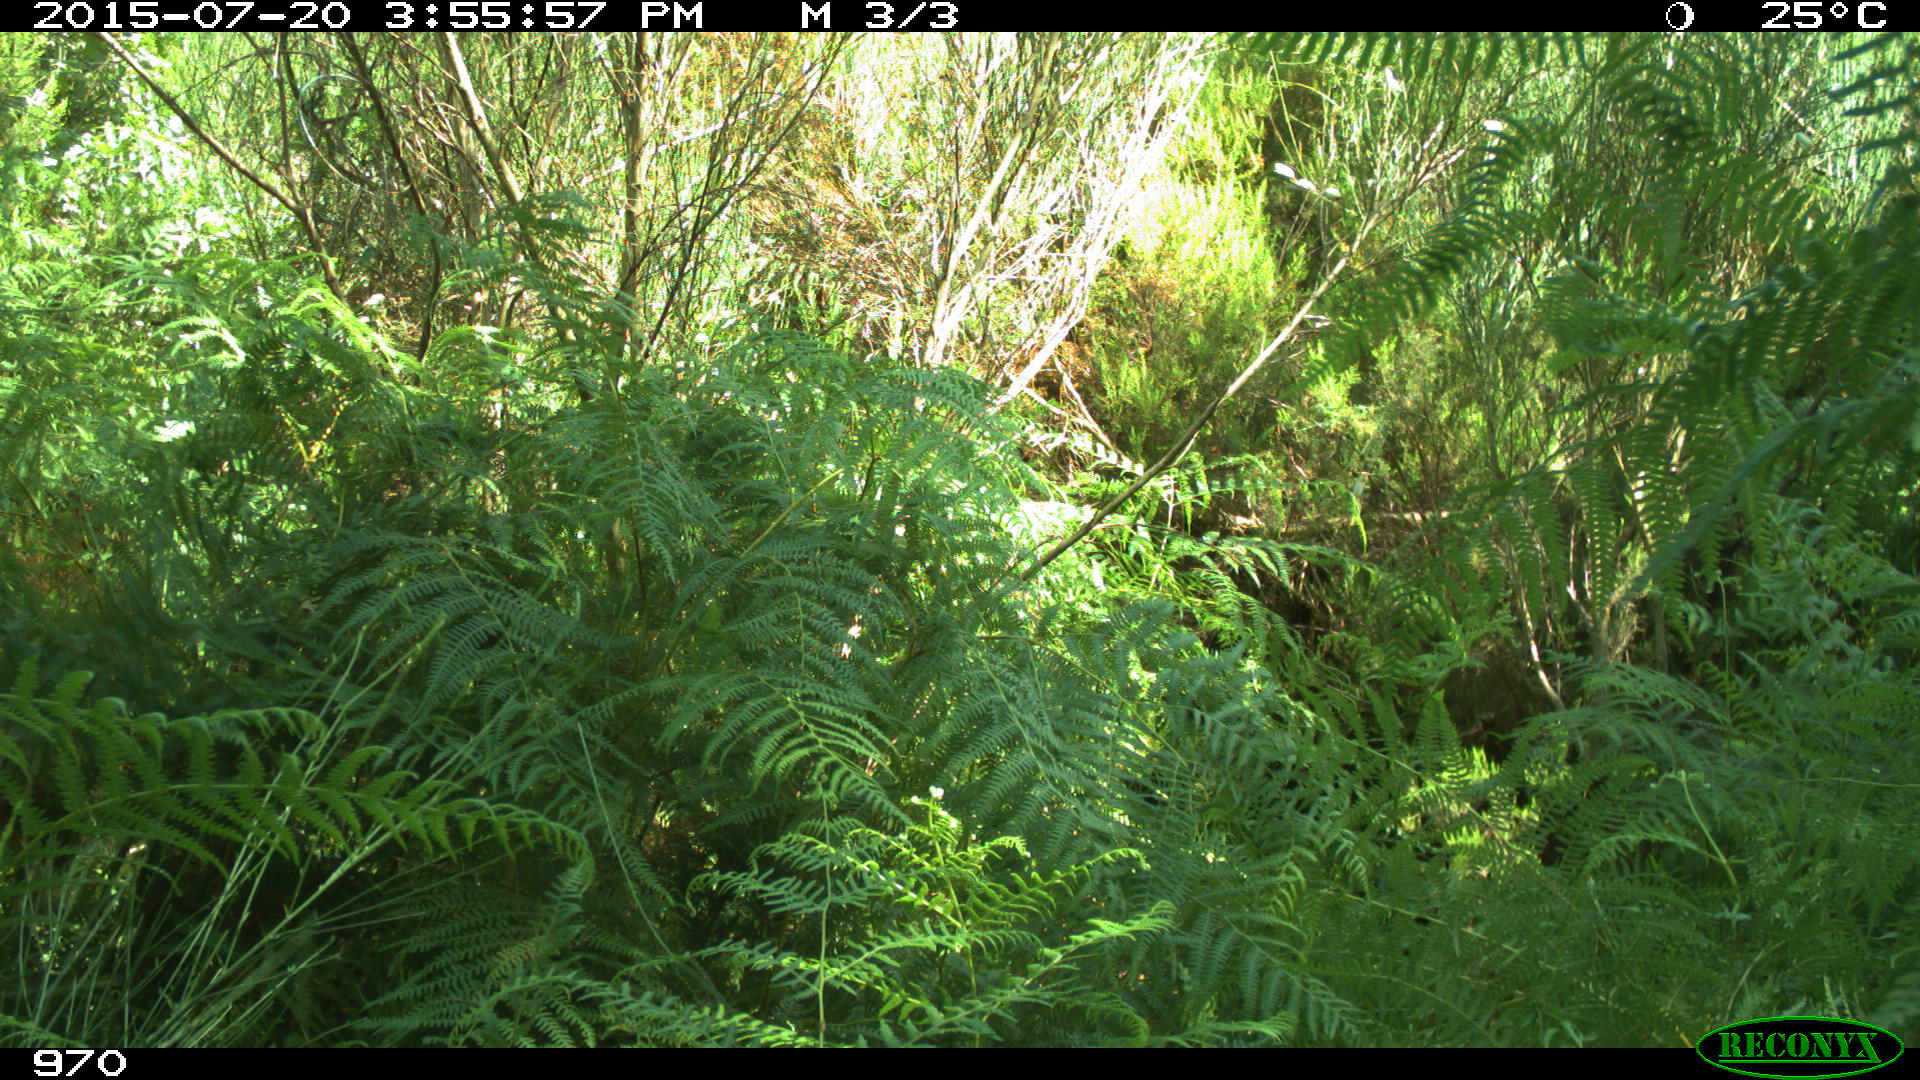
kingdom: Animalia
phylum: Chordata
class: Mammalia
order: Artiodactyla
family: Bovidae
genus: Bos
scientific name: Bos taurus
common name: Domesticated cattle
